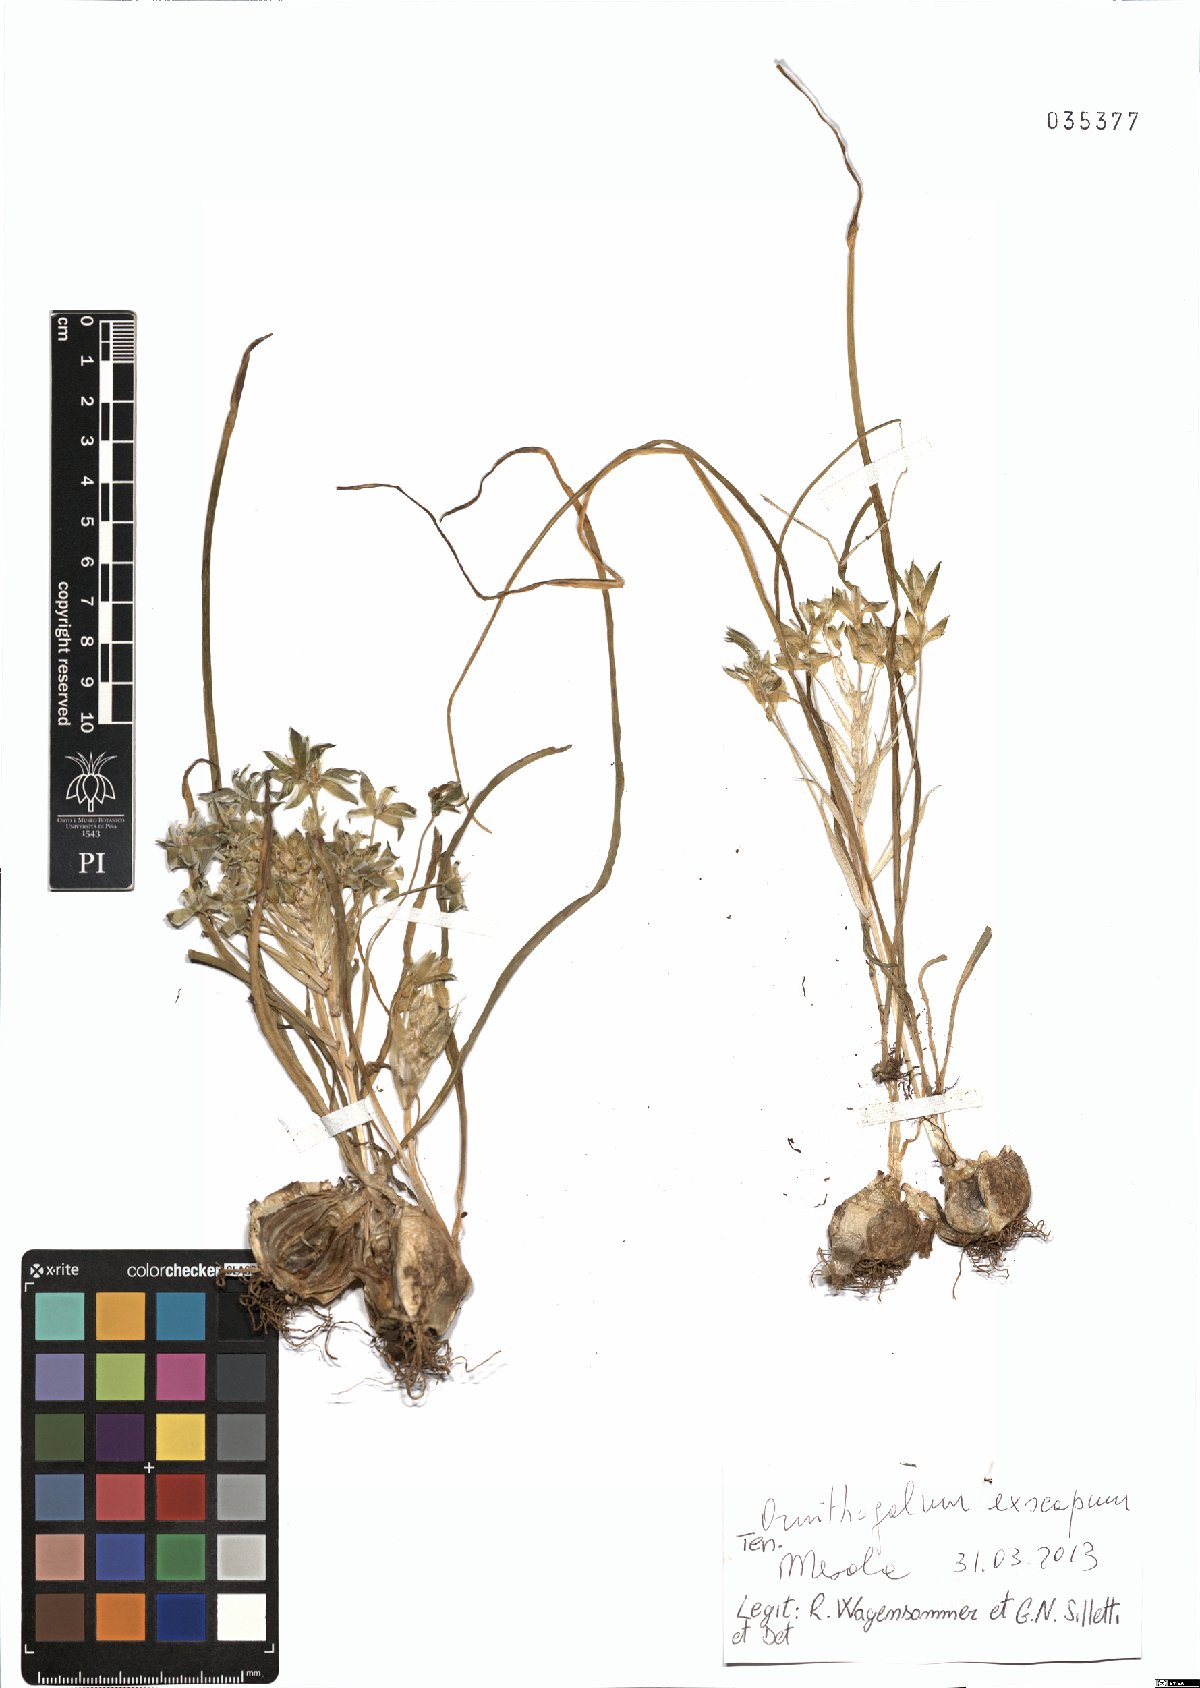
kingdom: Plantae
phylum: Tracheophyta
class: Liliopsida
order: Asparagales
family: Asparagaceae
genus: Ornithogalum
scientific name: Ornithogalum exscapum
